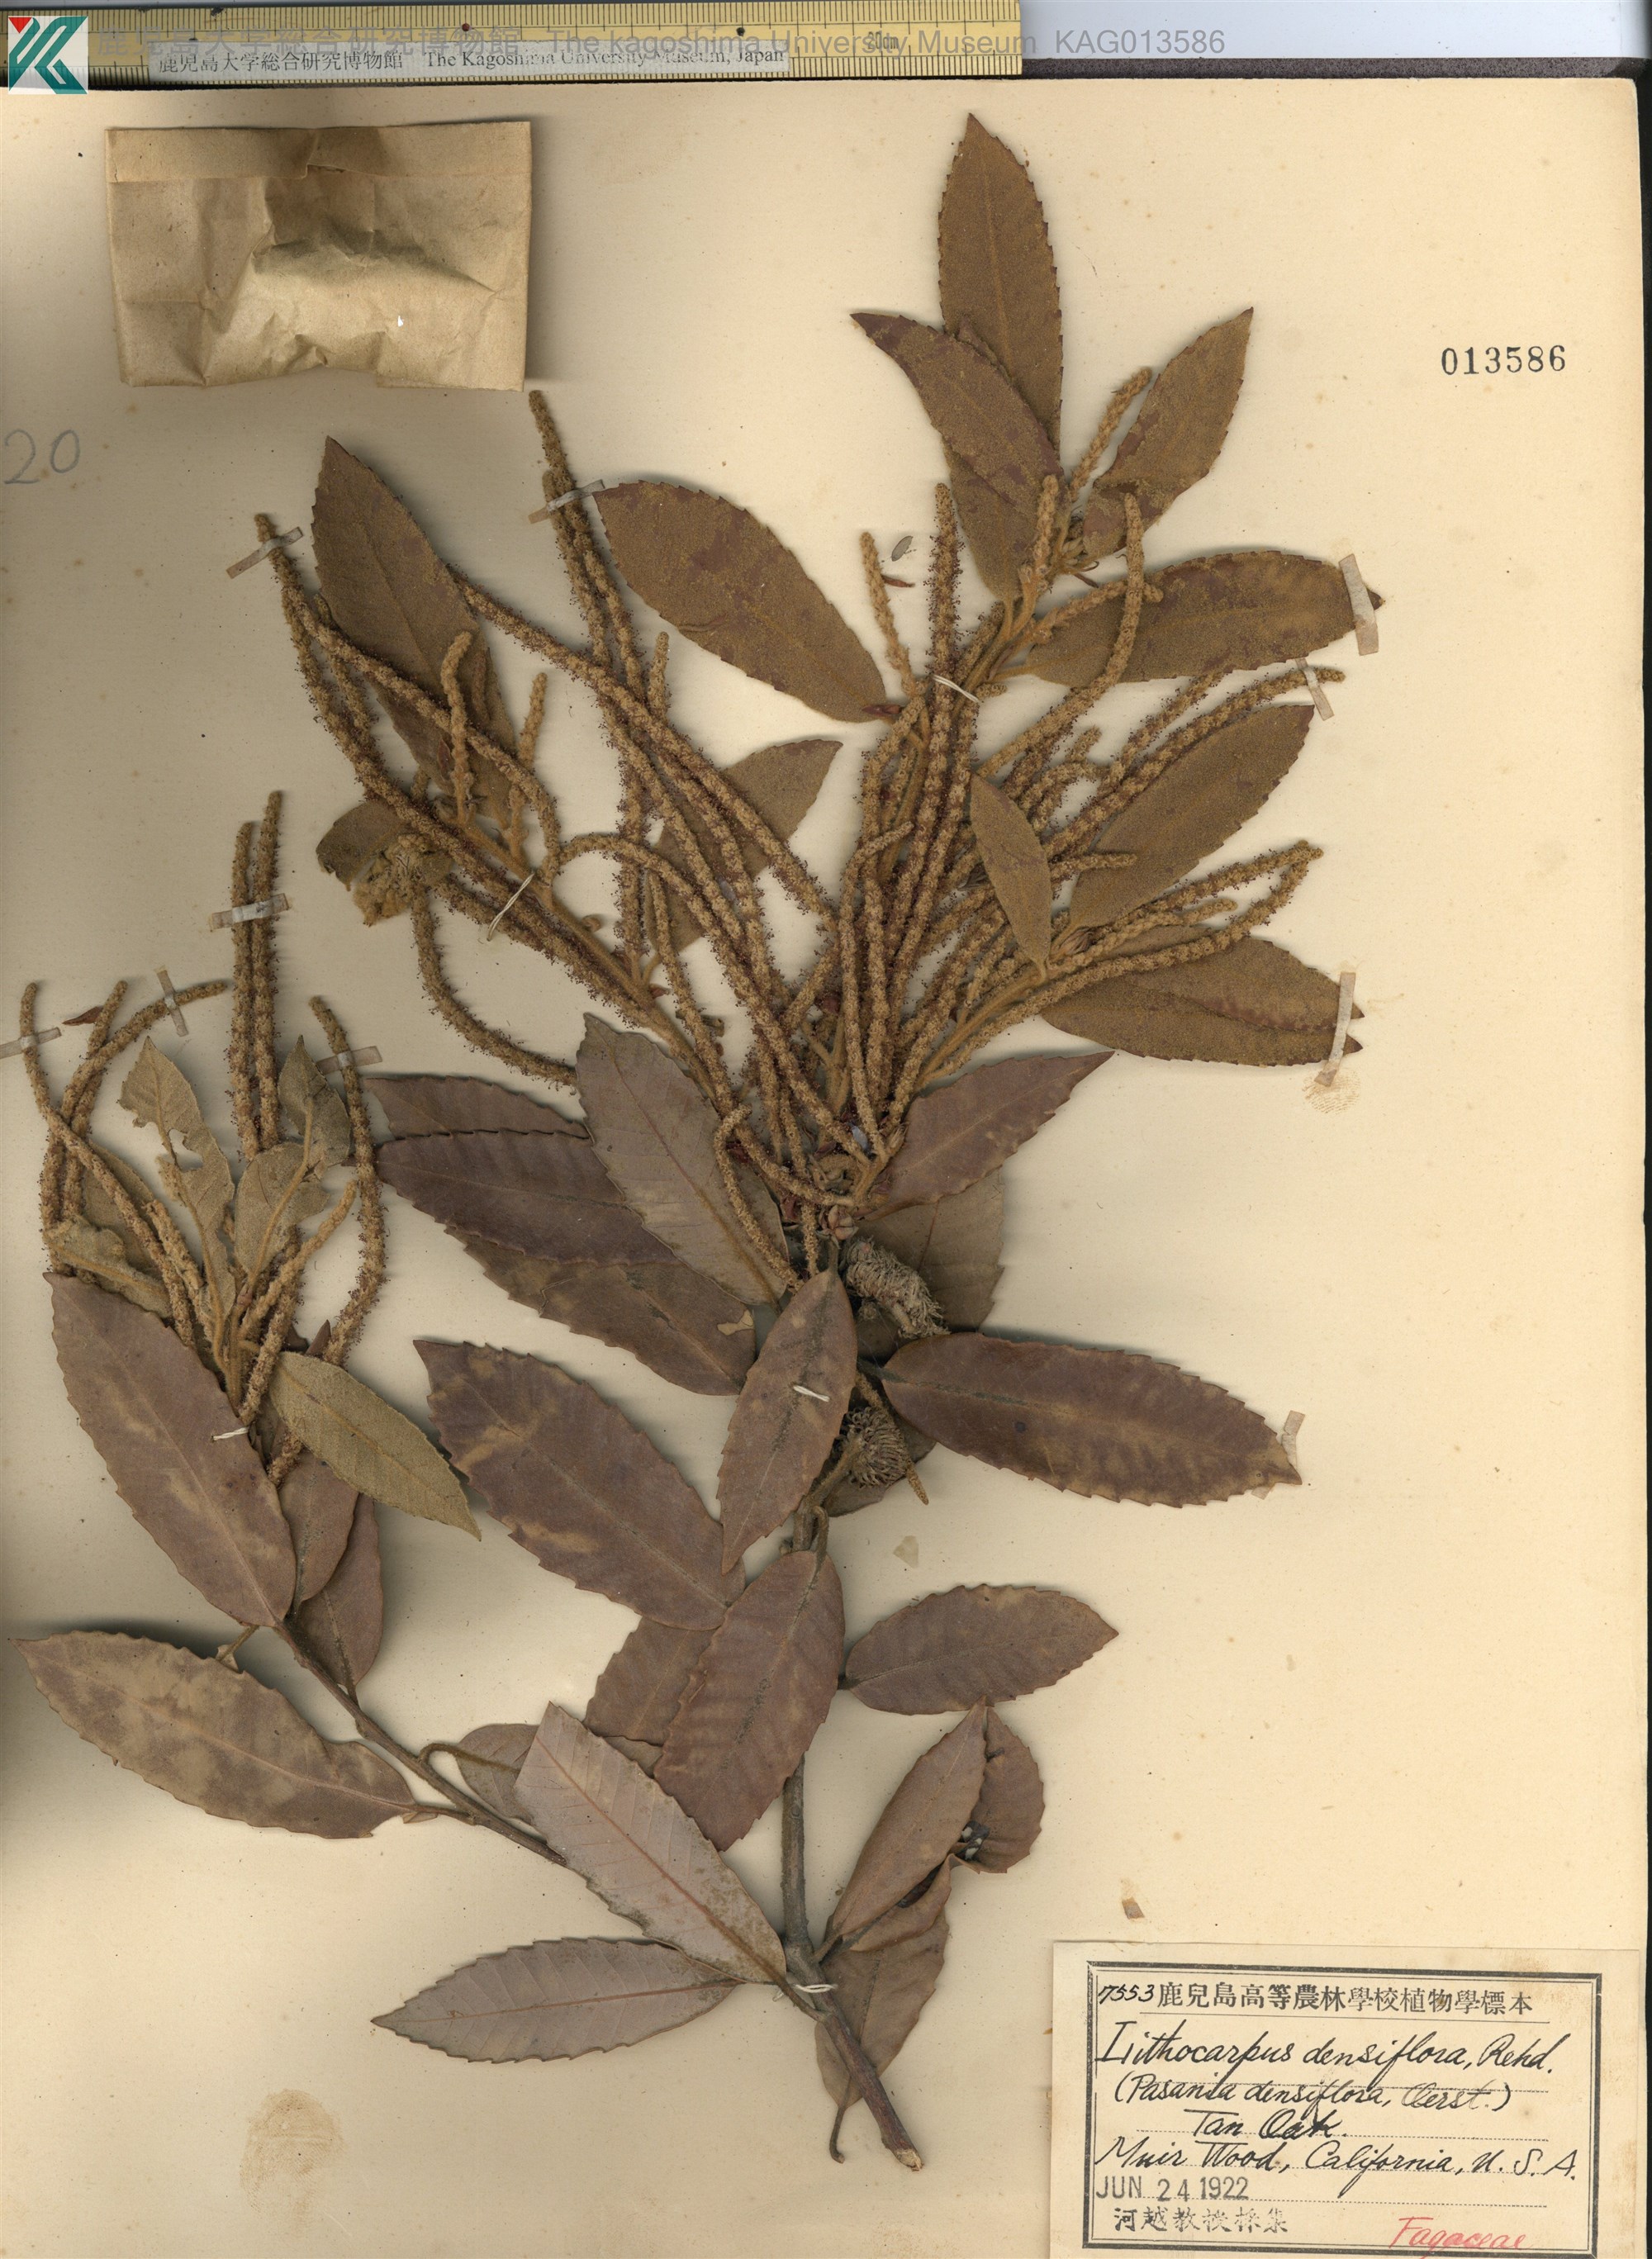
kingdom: Plantae
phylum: Tracheophyta
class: Magnoliopsida
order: Fagales
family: Fagaceae
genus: Notholithocarpus
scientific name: Notholithocarpus densiflorus
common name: Tan bark oak
